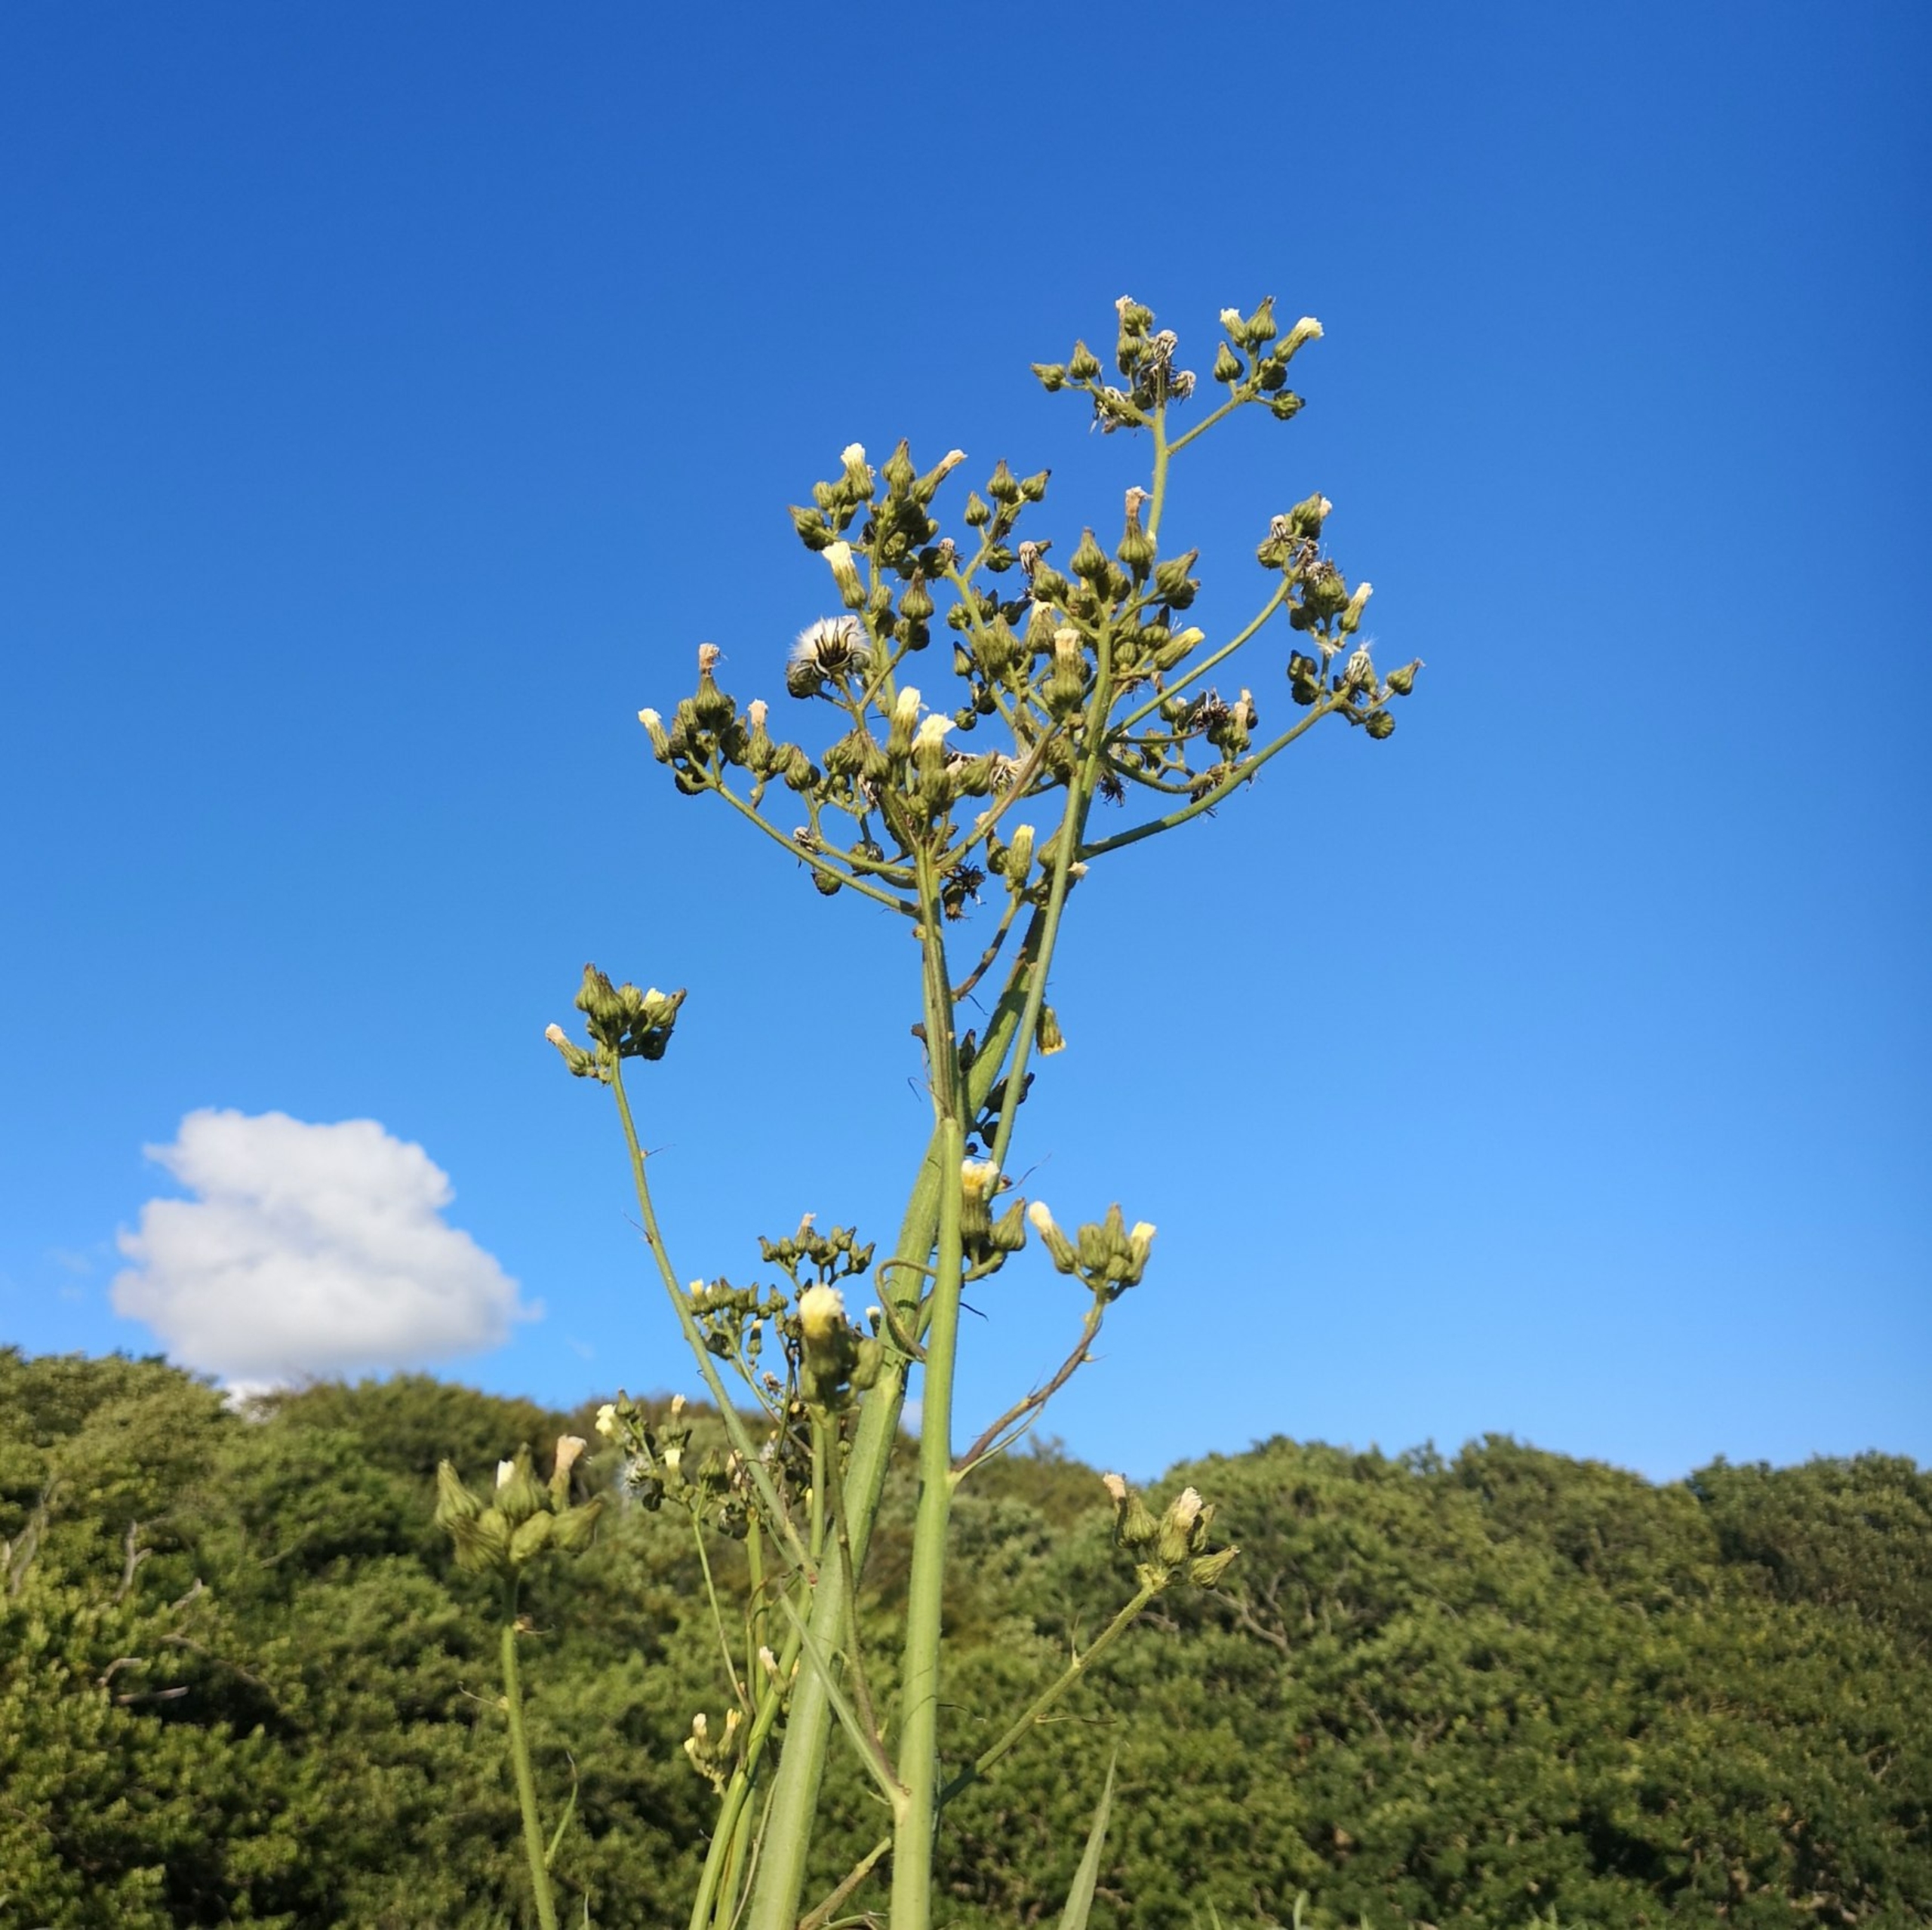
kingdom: Plantae
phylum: Tracheophyta
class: Magnoliopsida
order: Asterales
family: Asteraceae
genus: Sonchus
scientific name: Sonchus palustris
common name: Kær-svinemælk
